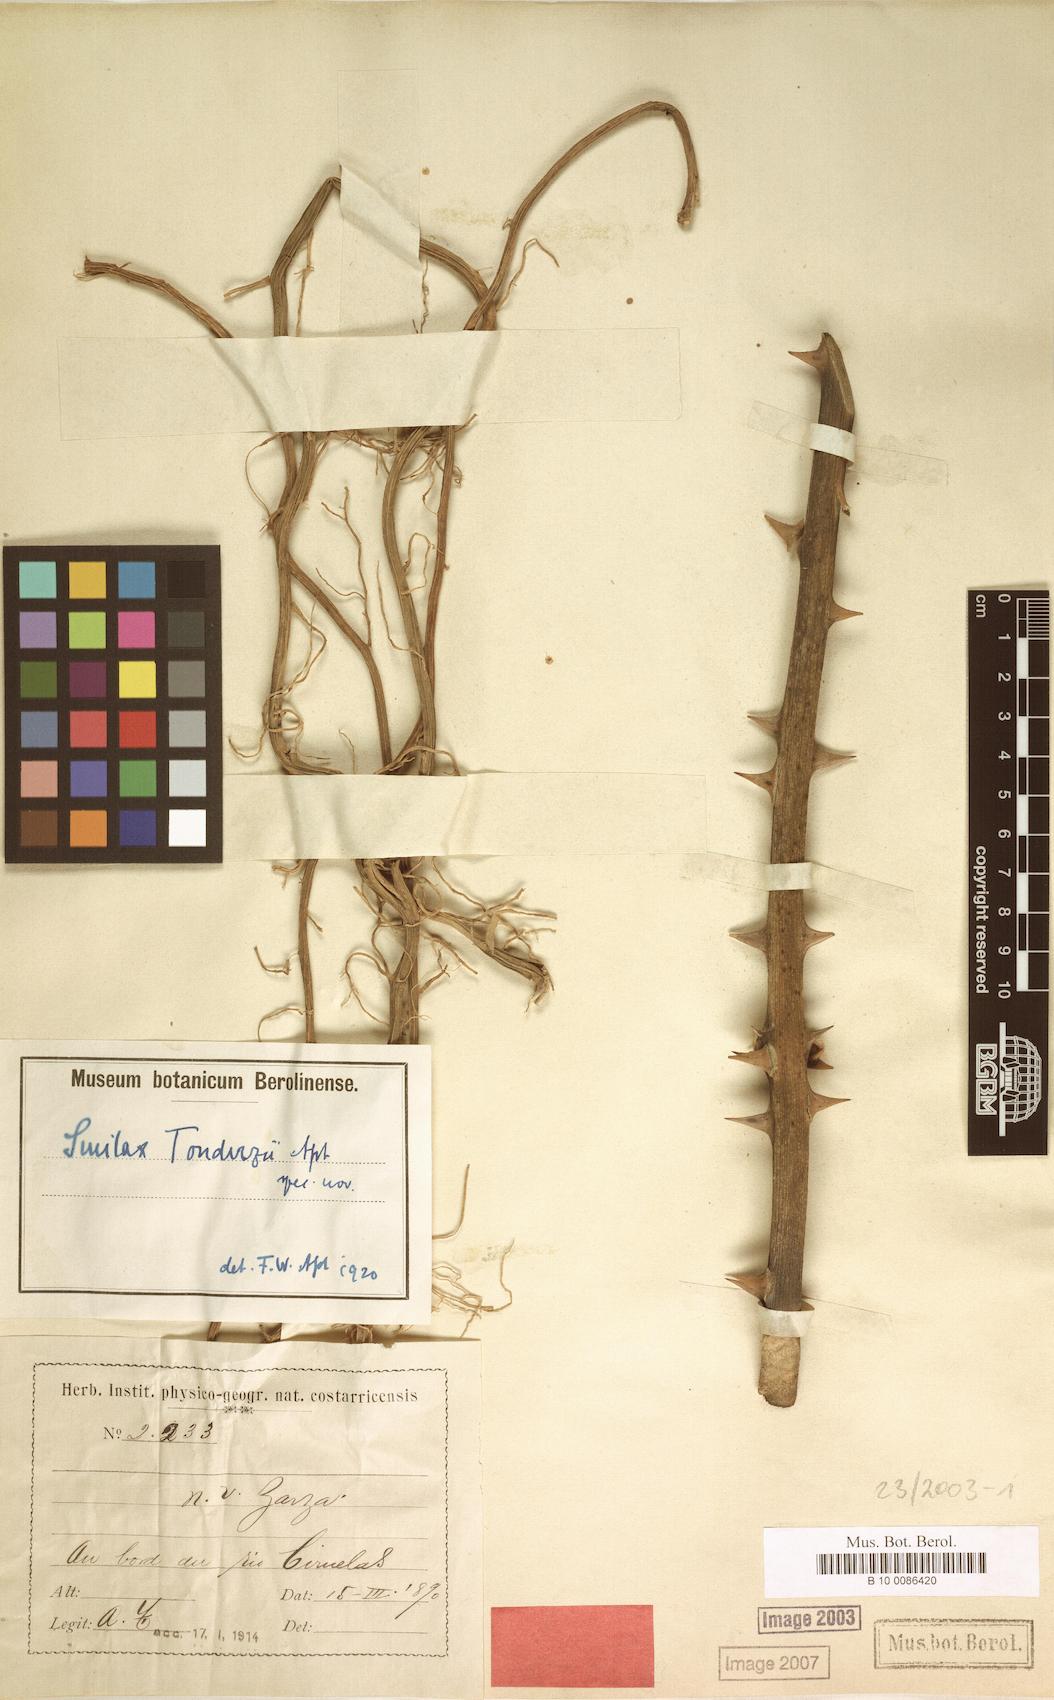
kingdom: Plantae
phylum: Tracheophyta
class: Liliopsida
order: Liliales
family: Smilacaceae
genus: Smilax
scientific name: Smilax officinalis
